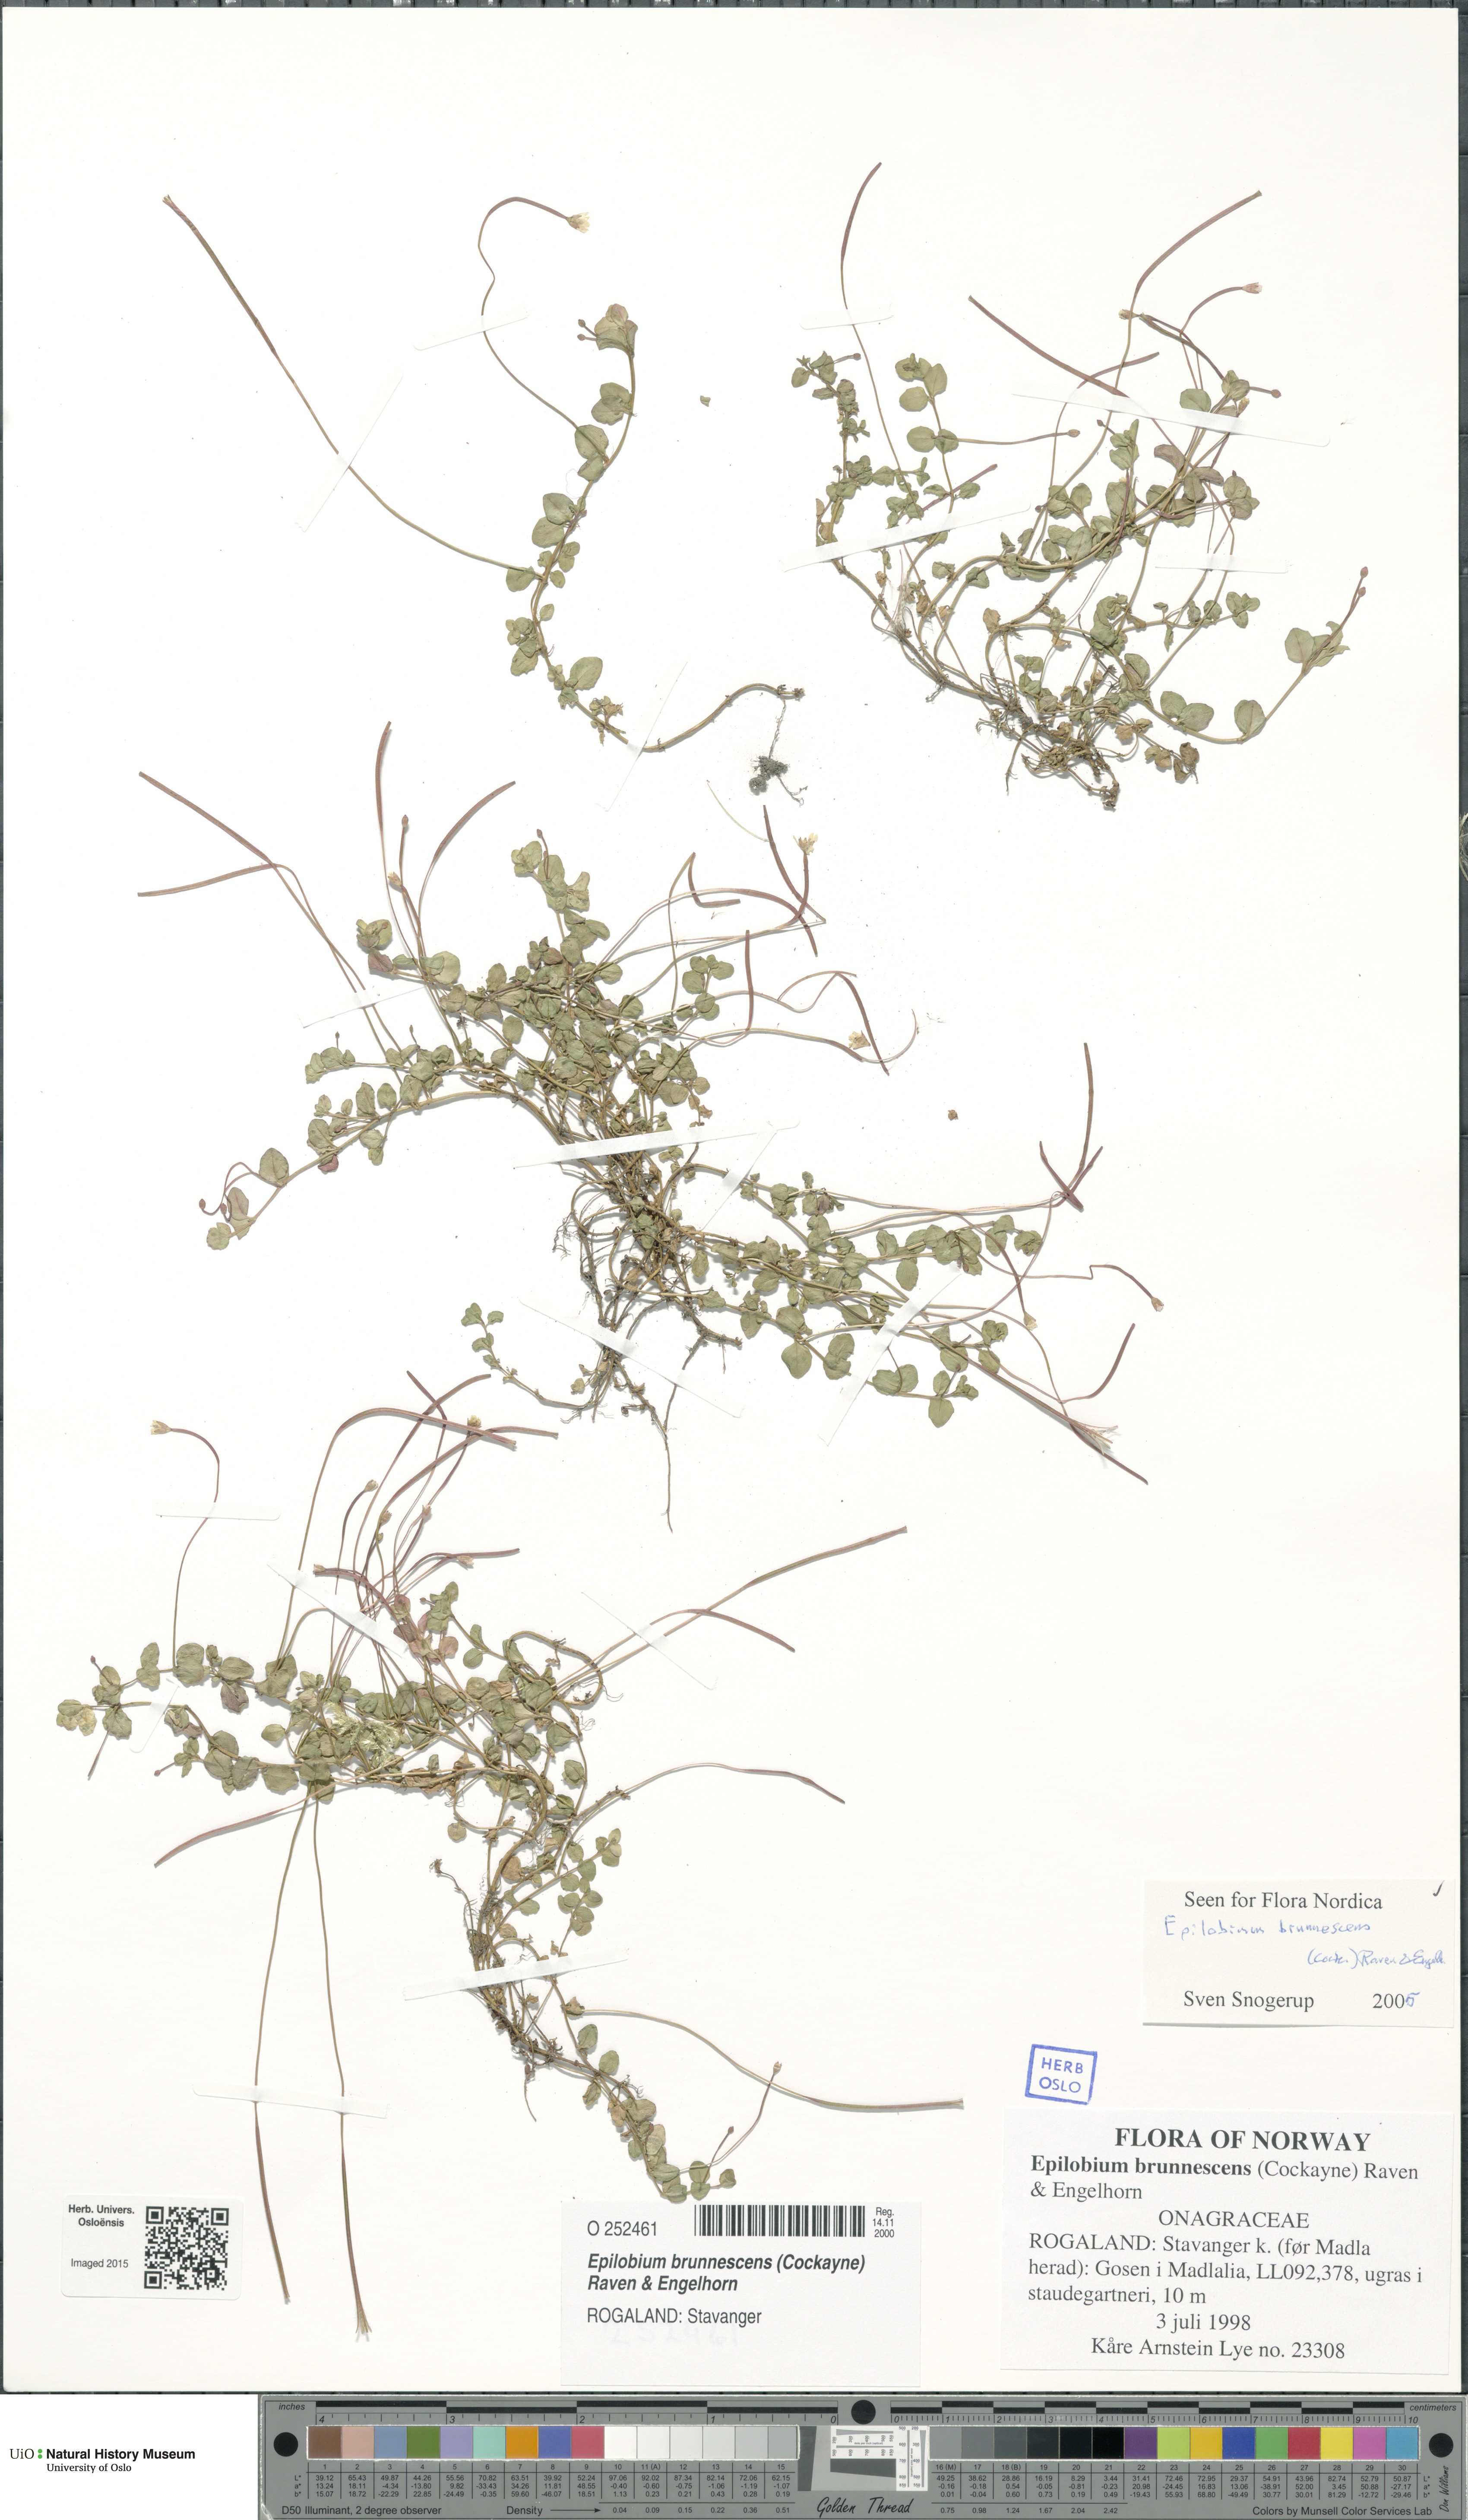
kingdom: Plantae
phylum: Tracheophyta
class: Magnoliopsida
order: Myrtales
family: Onagraceae
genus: Epilobium
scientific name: Epilobium brunnescens
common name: New zealand willowherb
